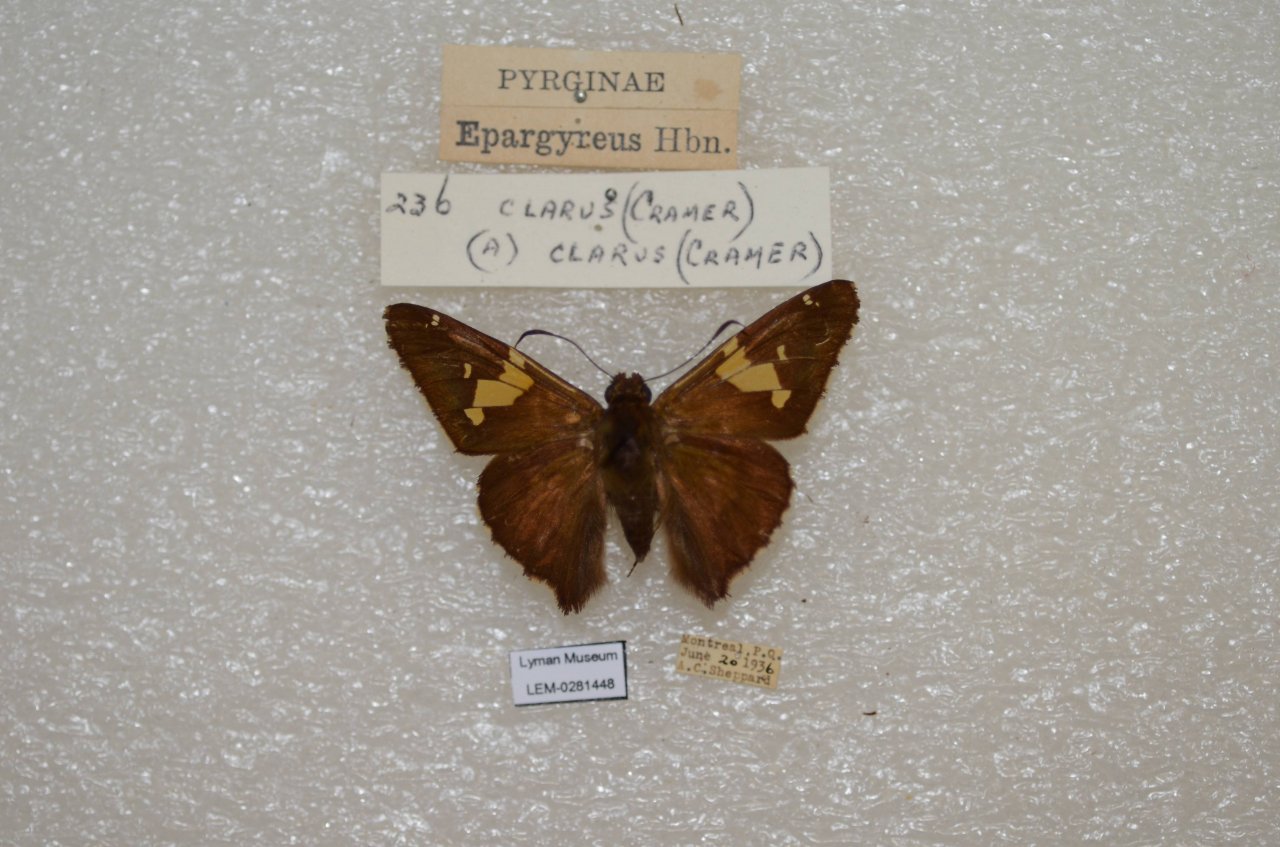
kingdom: Animalia
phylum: Arthropoda
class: Insecta
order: Lepidoptera
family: Hesperiidae
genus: Epargyreus
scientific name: Epargyreus clarus
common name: Silver-spotted Skipper
